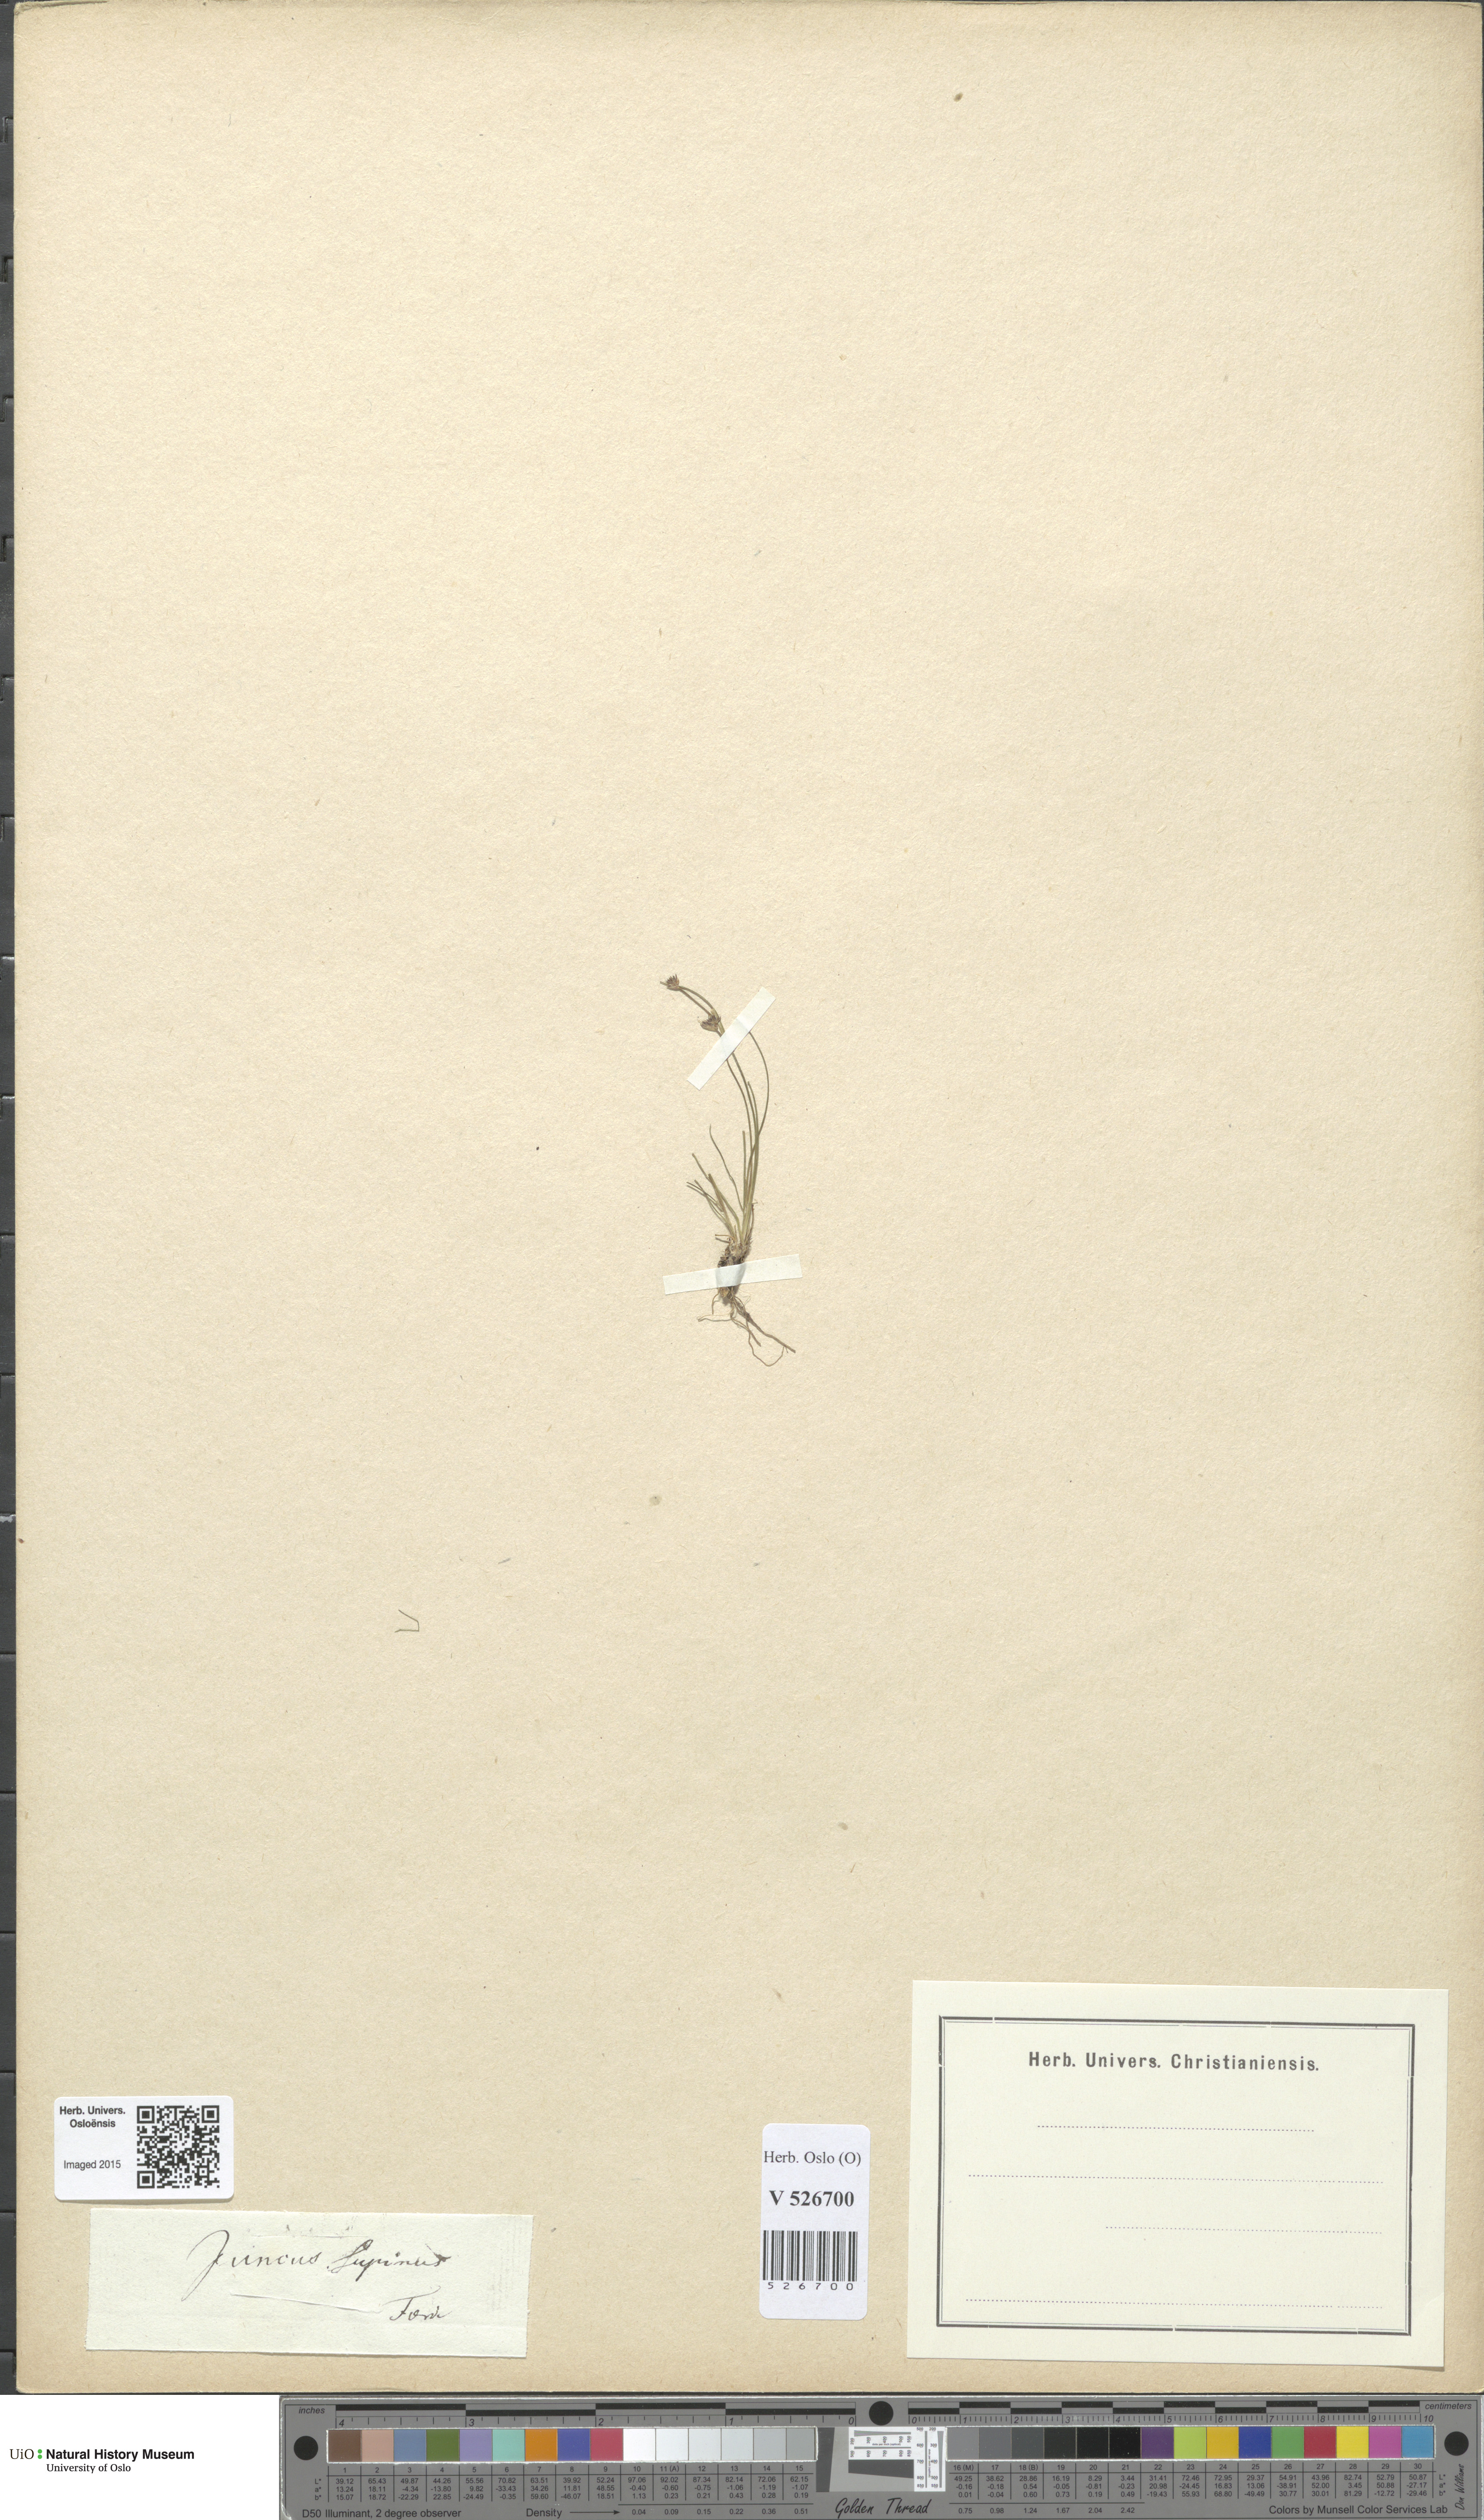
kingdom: Plantae
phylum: Tracheophyta
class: Liliopsida
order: Poales
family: Juncaceae
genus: Juncus
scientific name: Juncus bulbosus
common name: Bulbous rush
